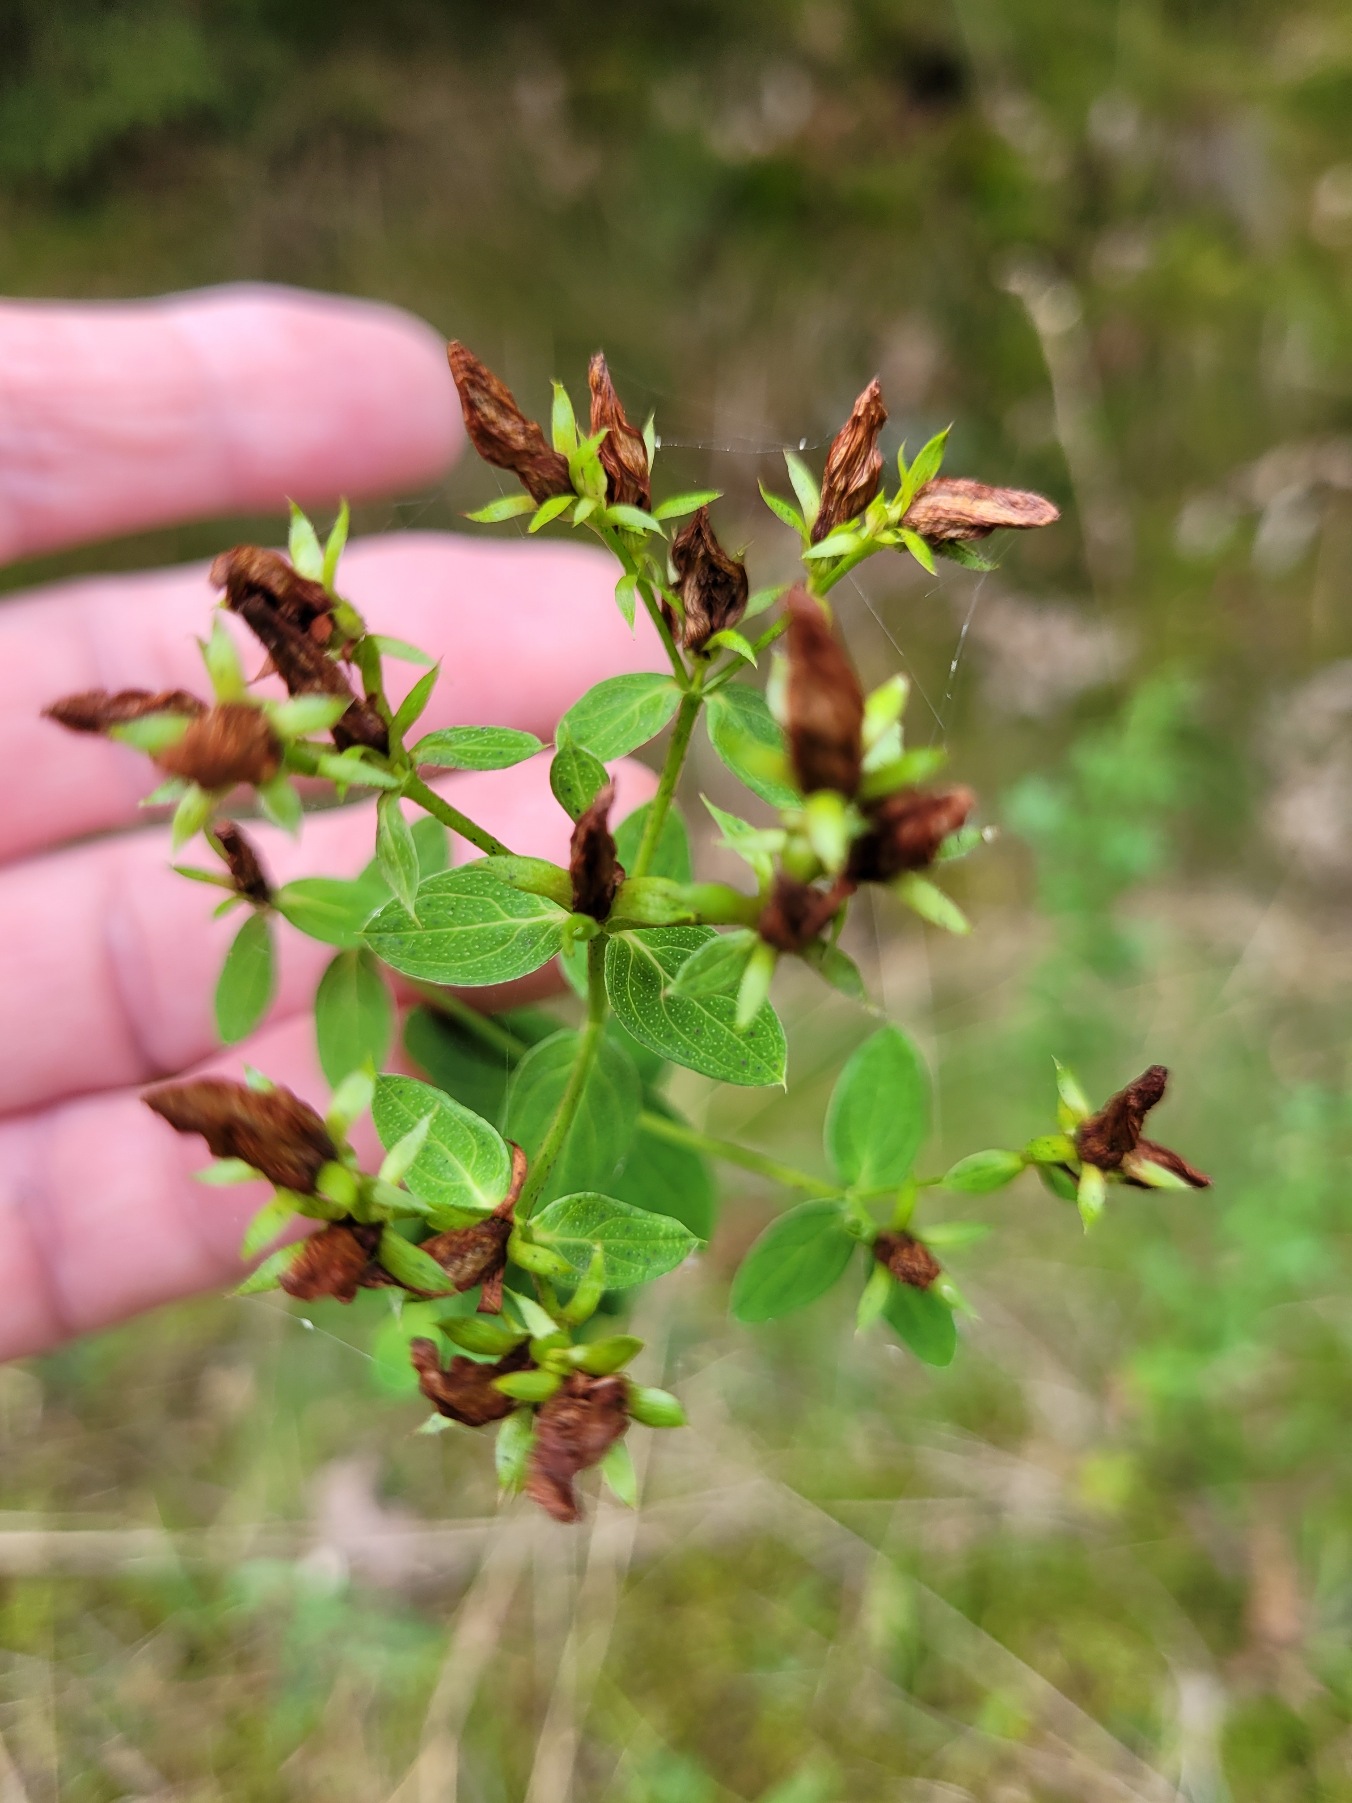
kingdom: Plantae
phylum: Tracheophyta
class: Magnoliopsida
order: Malpighiales
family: Hypericaceae
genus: Hypericum
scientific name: Hypericum perforatum
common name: Prikbladet perikon
